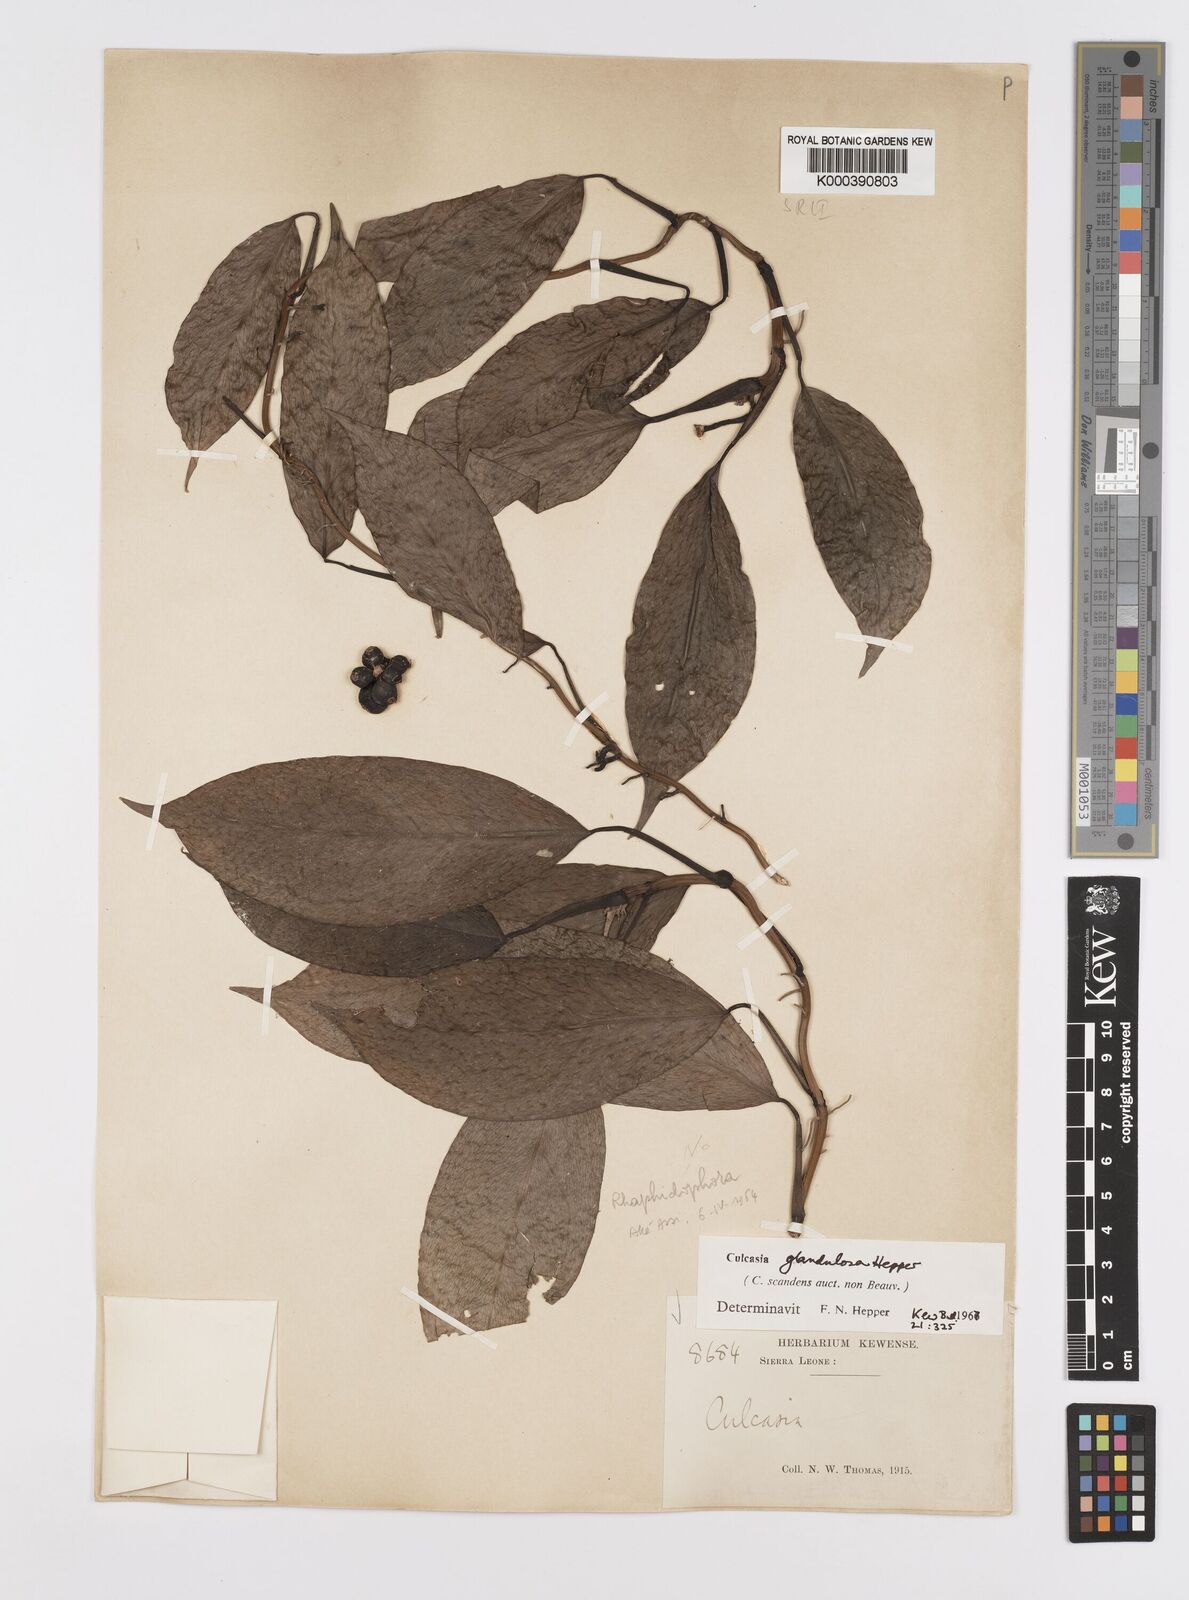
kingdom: Plantae
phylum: Tracheophyta
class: Liliopsida
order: Alismatales
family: Araceae
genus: Culcasia
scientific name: Culcasia glandulosa
